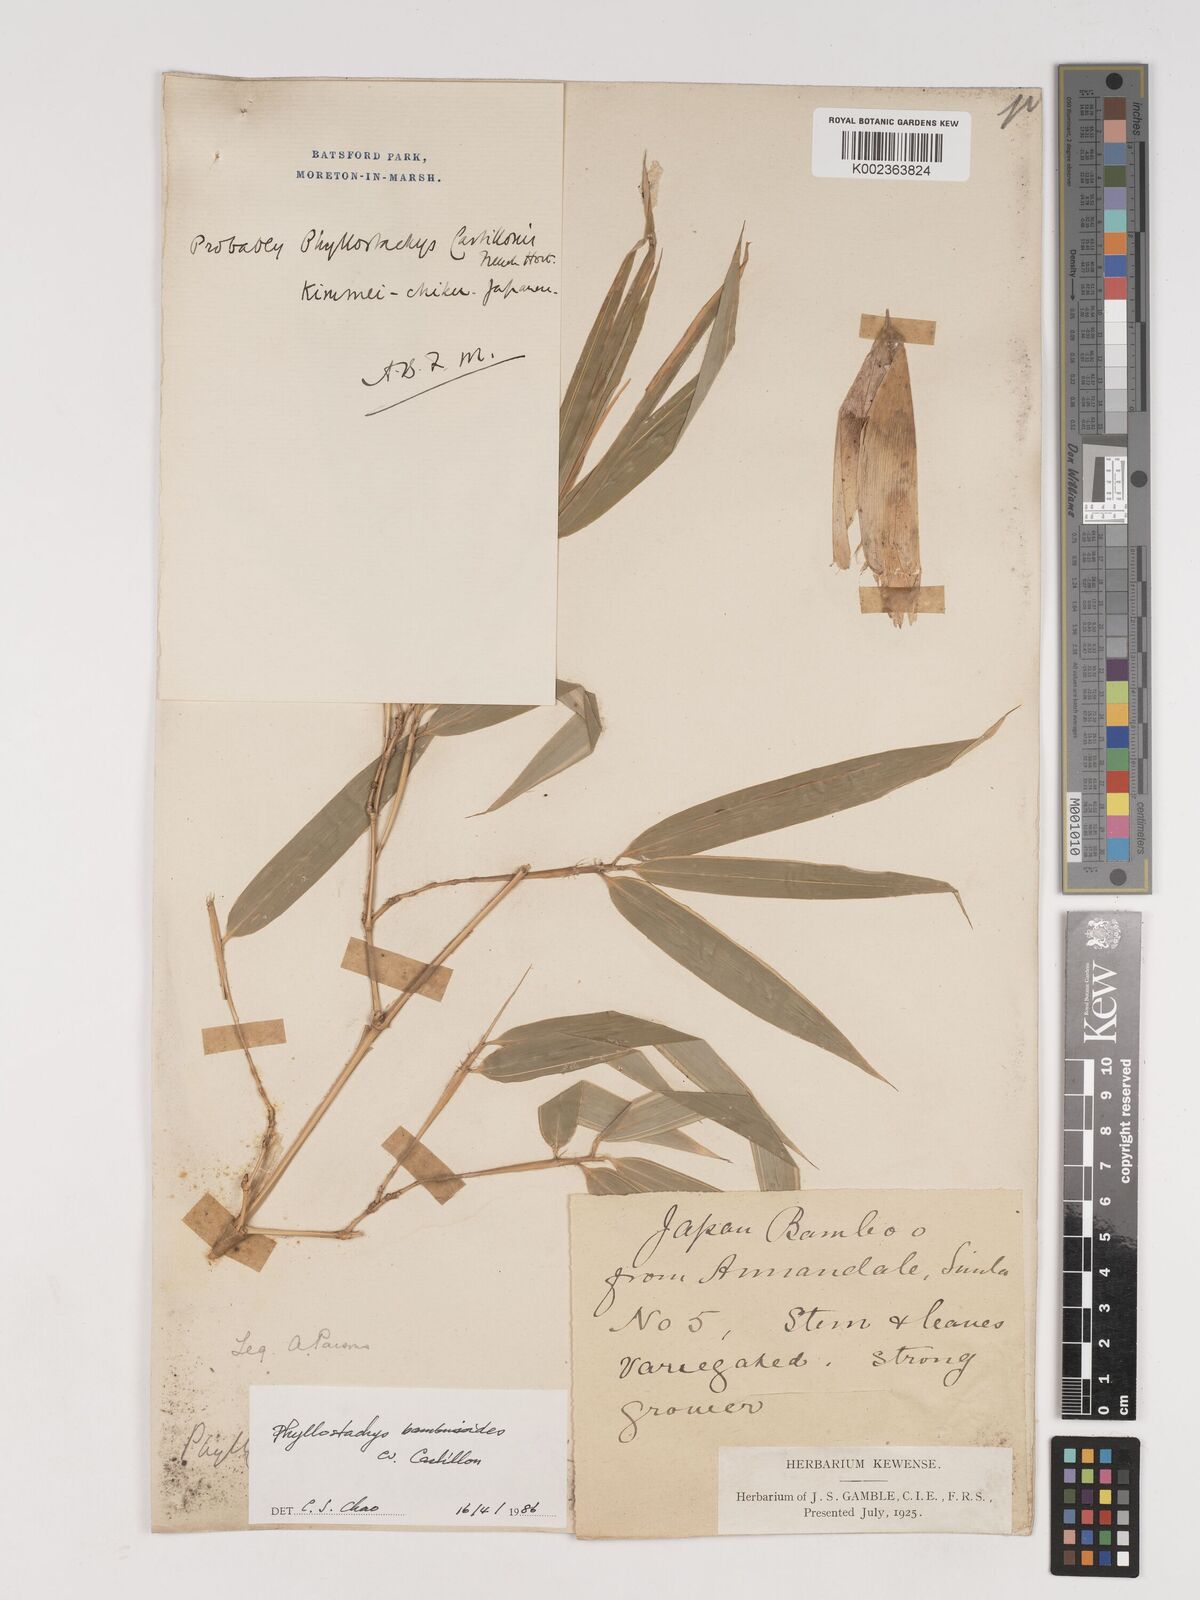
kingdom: Plantae
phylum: Tracheophyta
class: Liliopsida
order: Poales
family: Poaceae
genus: Phyllostachys
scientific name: Phyllostachys reticulata
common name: Bamboo
